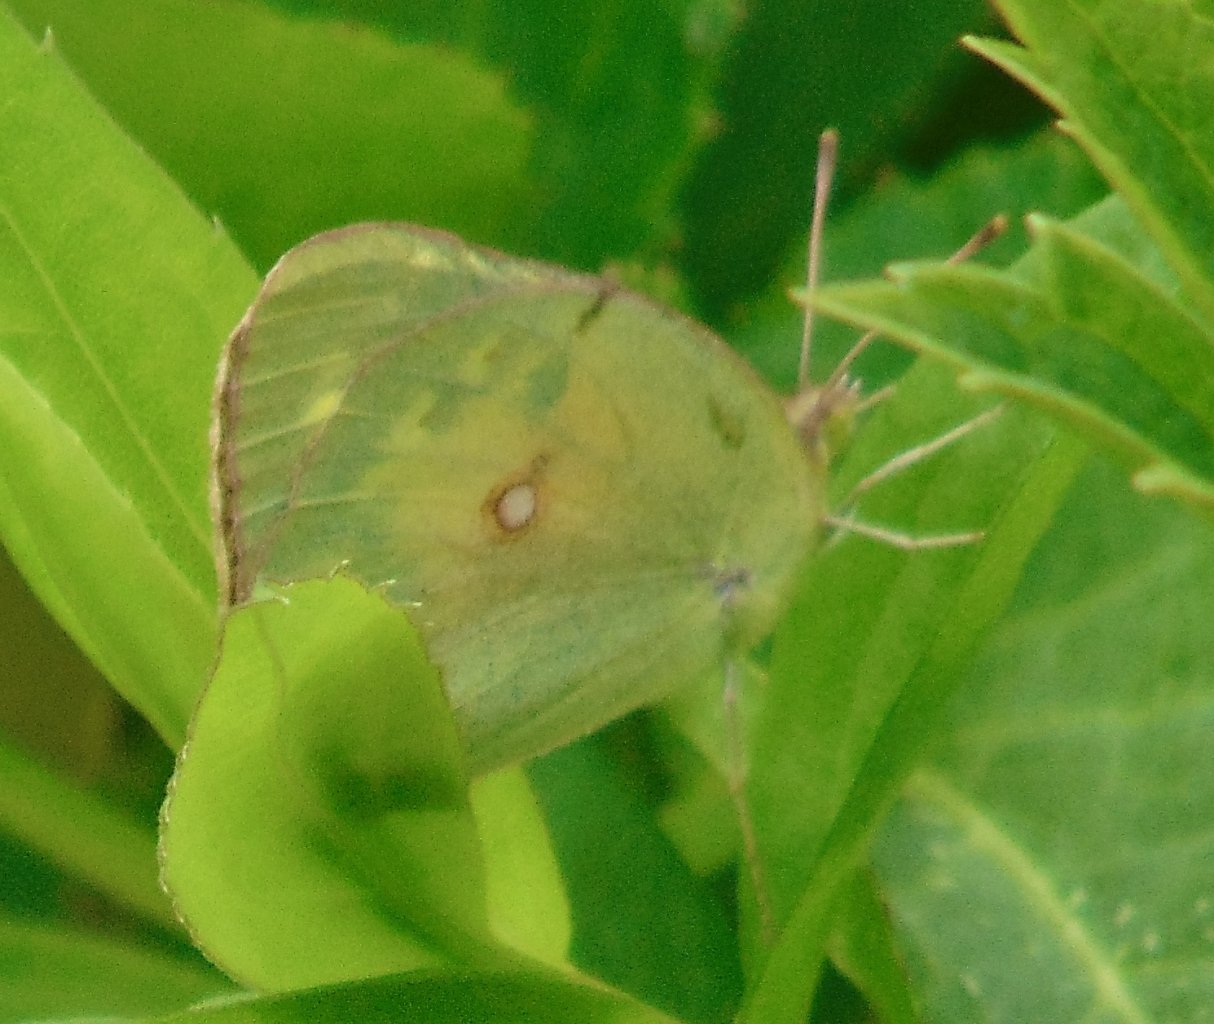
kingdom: Animalia
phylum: Arthropoda
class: Insecta
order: Lepidoptera
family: Pieridae
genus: Colias
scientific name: Colias philodice
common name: Clouded Sulphur
